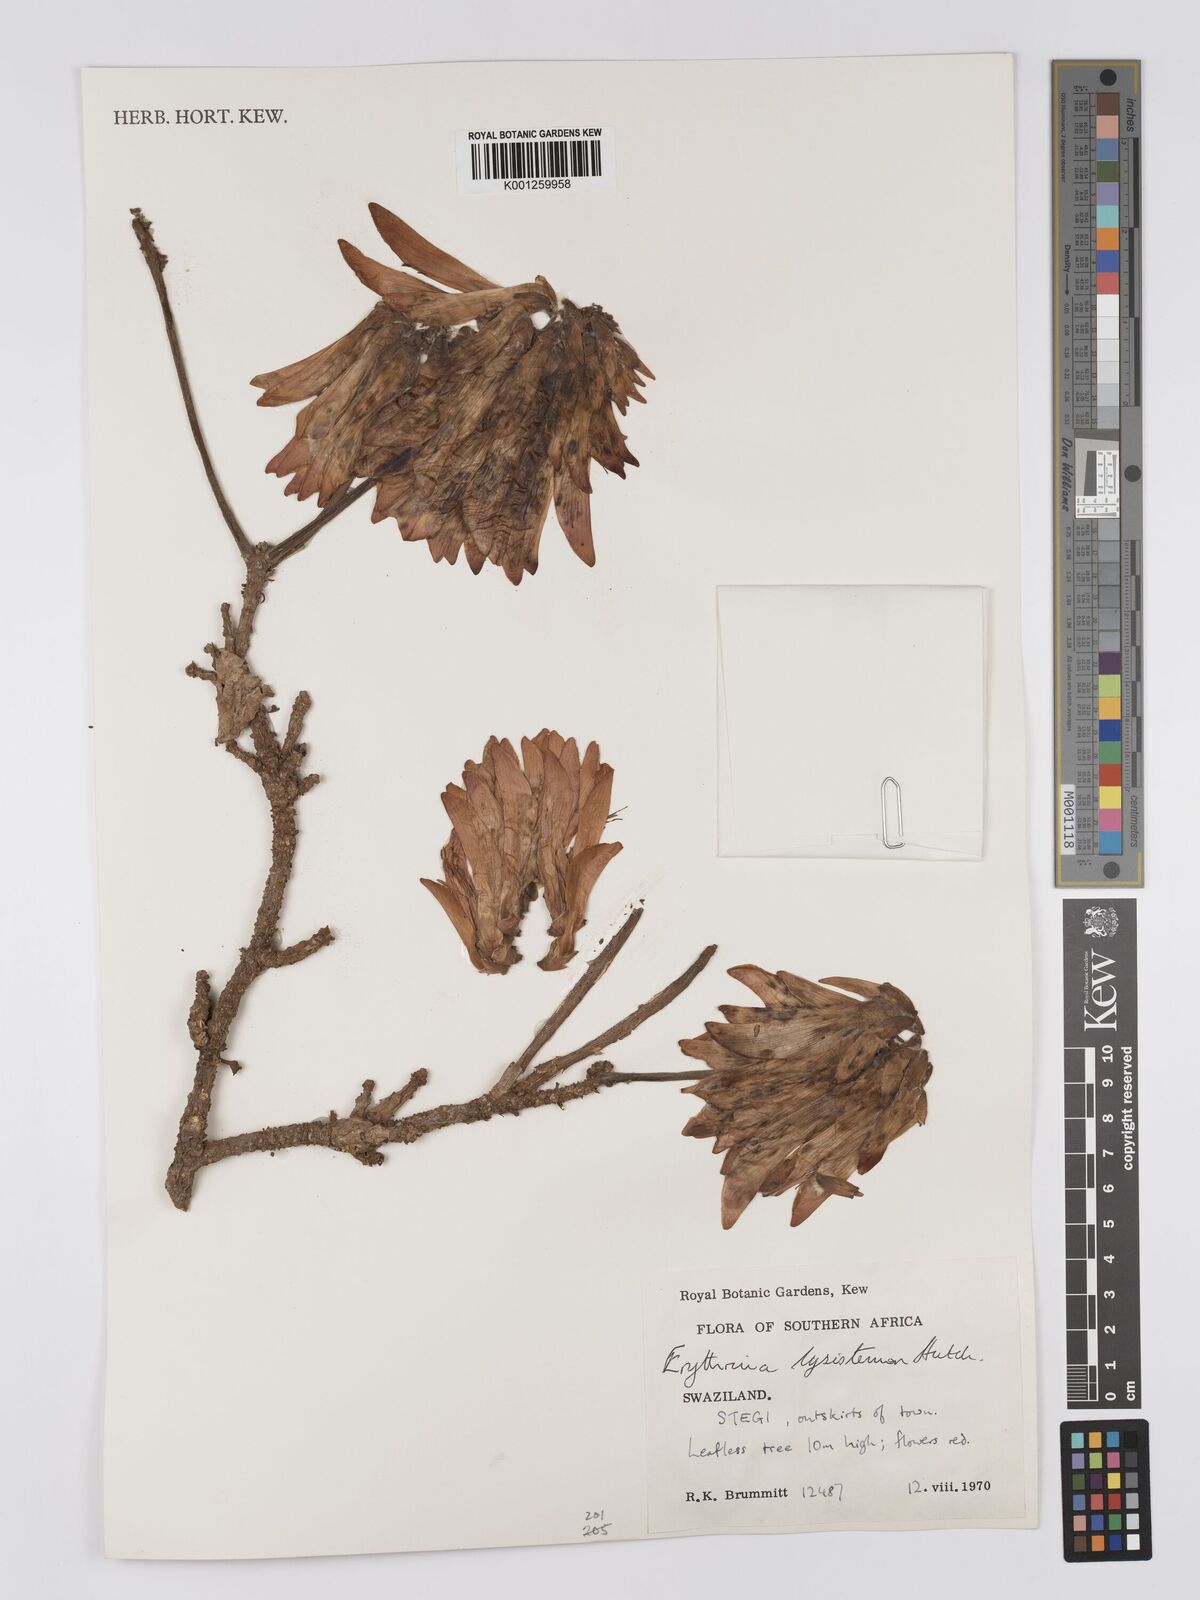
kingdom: Plantae
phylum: Tracheophyta
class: Magnoliopsida
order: Fabales
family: Fabaceae
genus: Erythrina
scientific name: Erythrina lysistemon
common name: Common coral tree
